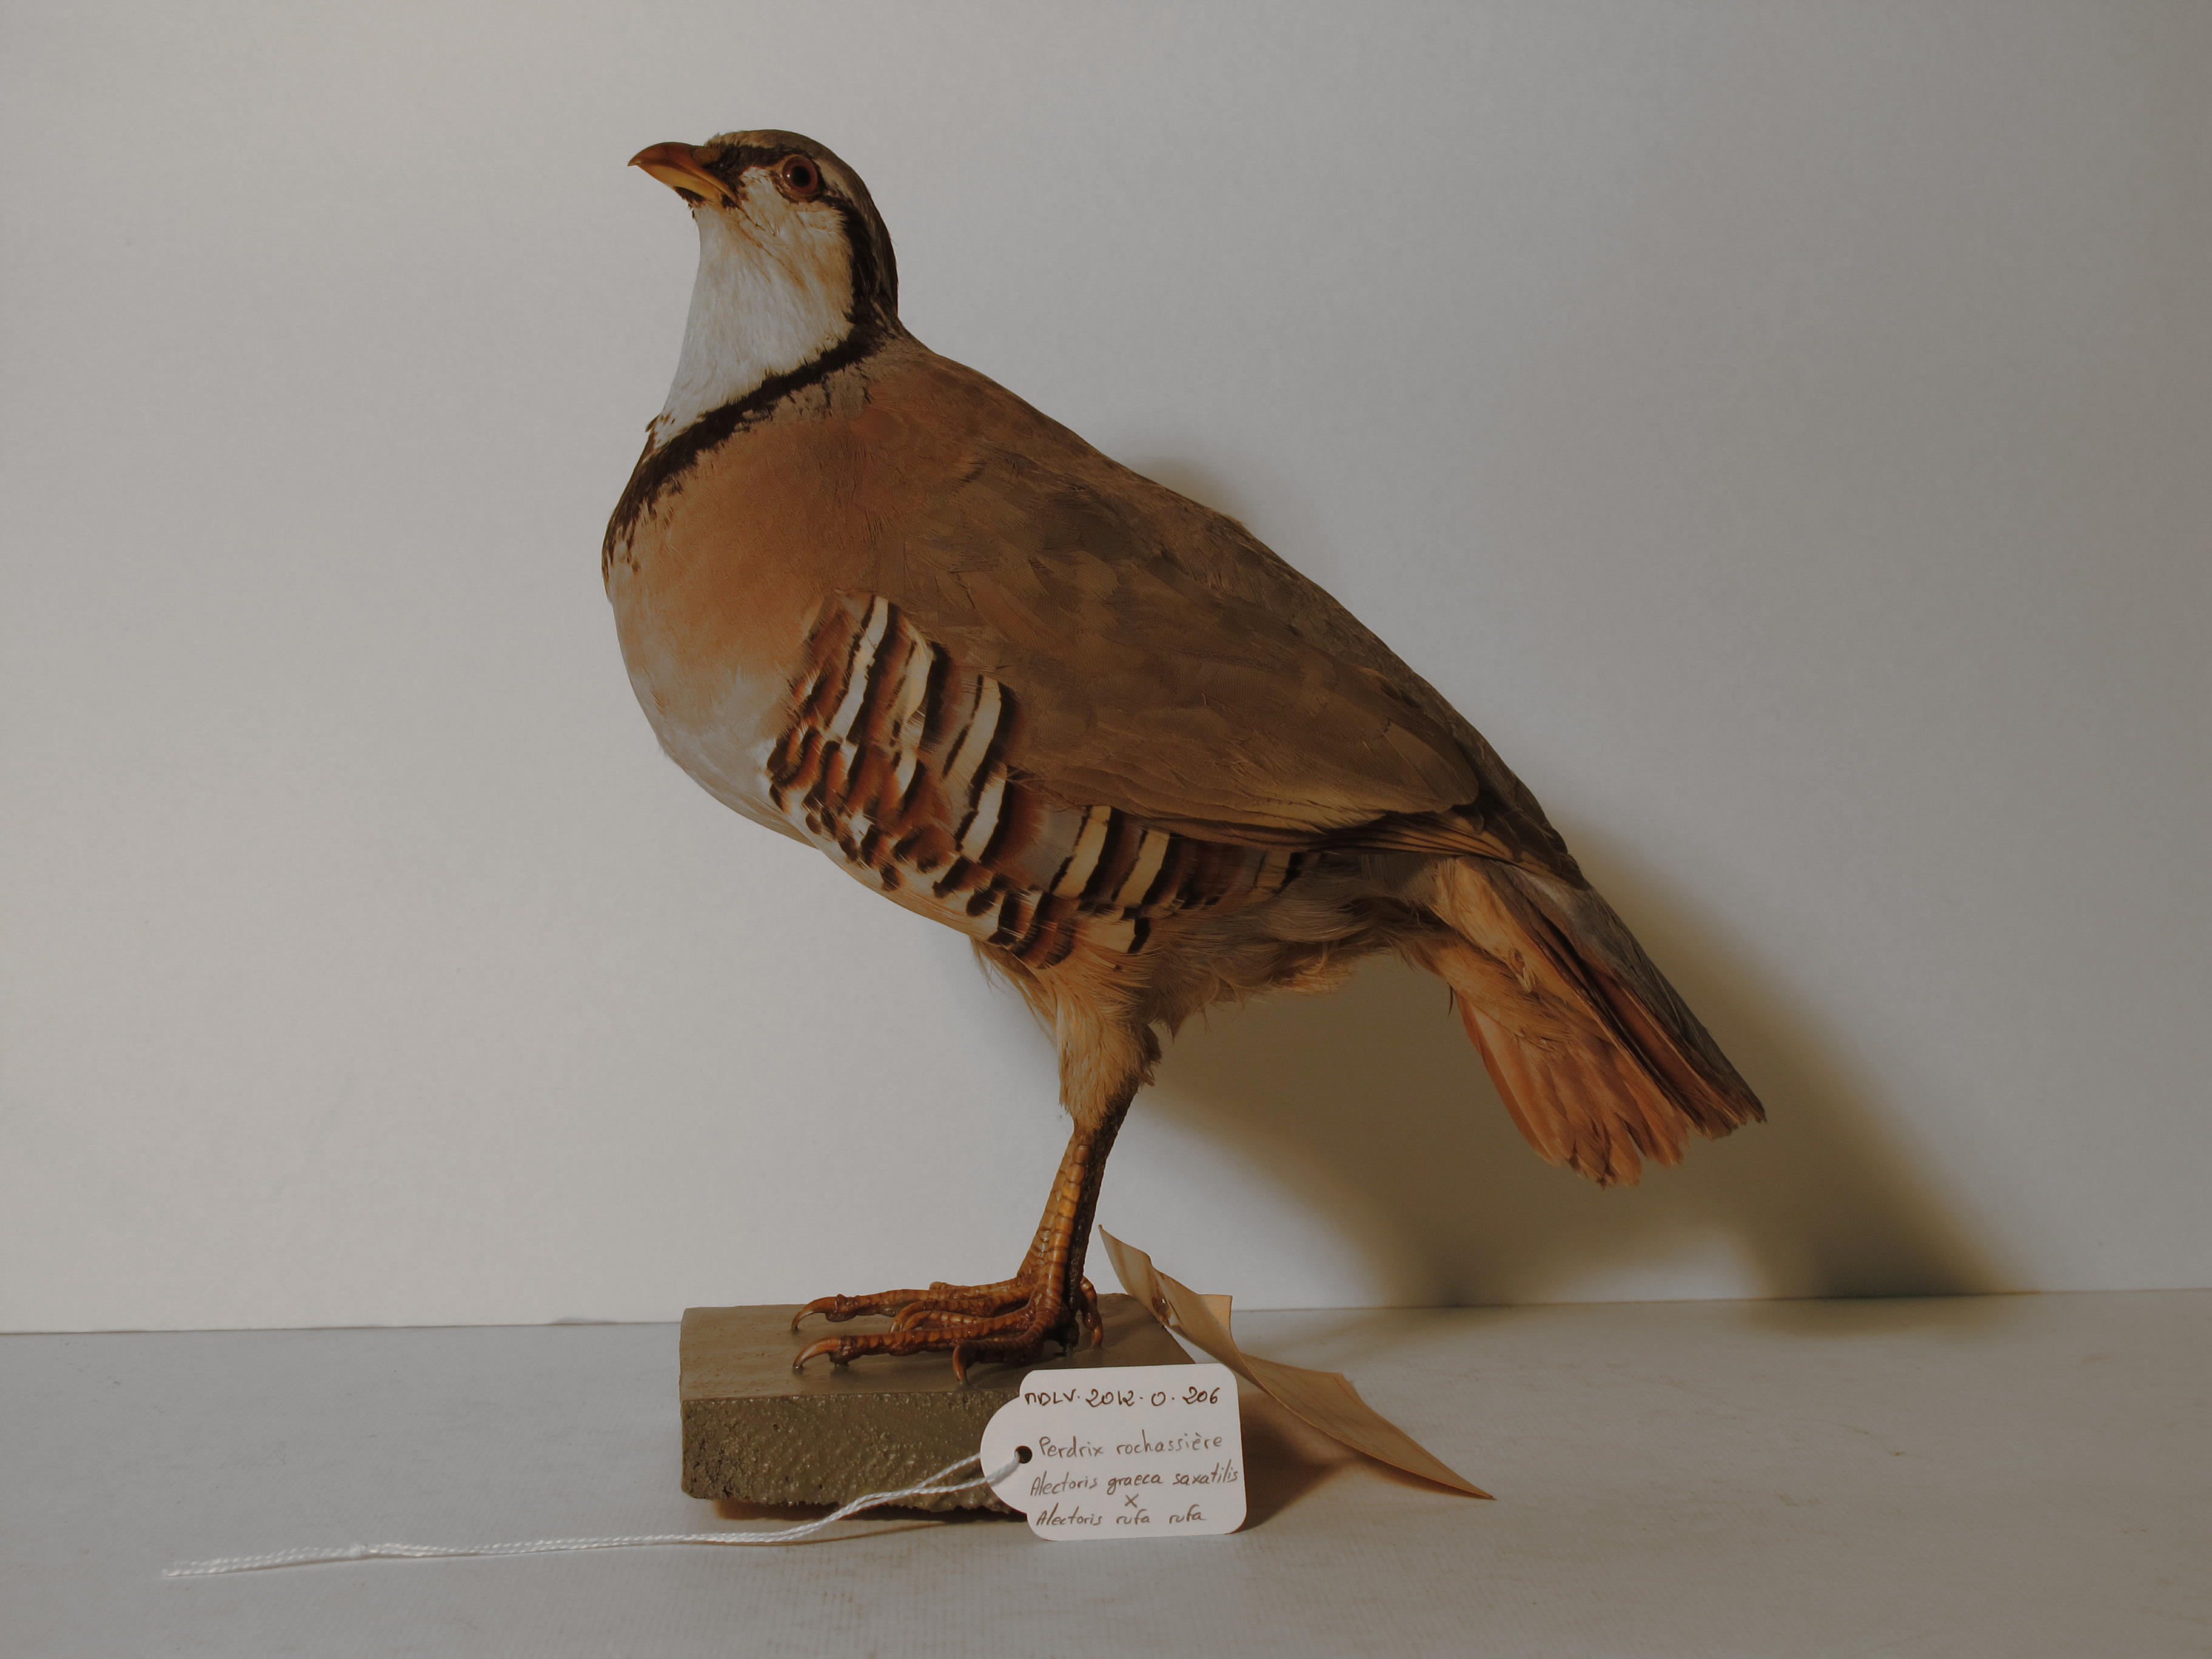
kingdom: Animalia
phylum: Chordata
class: Aves
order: Galliformes
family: Phasianidae
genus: Alectoris
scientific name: Alectoris
